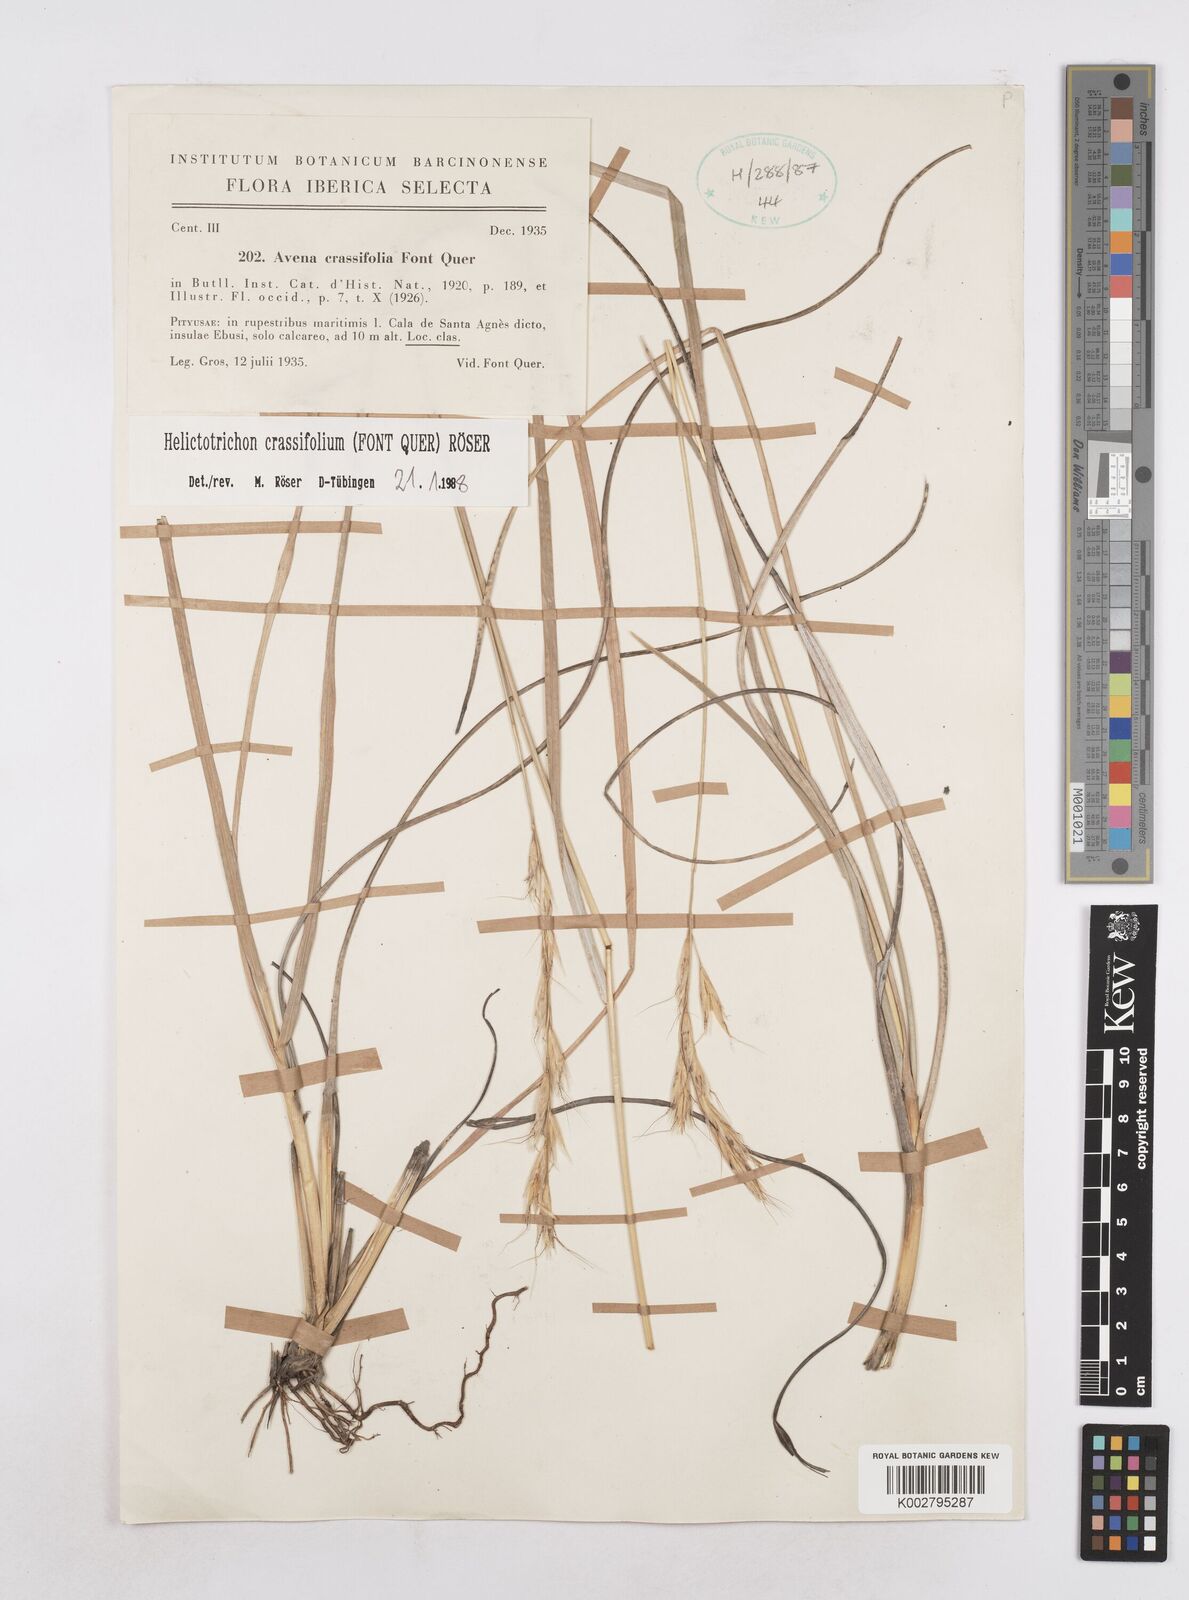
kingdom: Plantae
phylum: Tracheophyta
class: Liliopsida
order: Poales
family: Poaceae
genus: Helictochloa
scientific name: Helictochloa crassifolia
